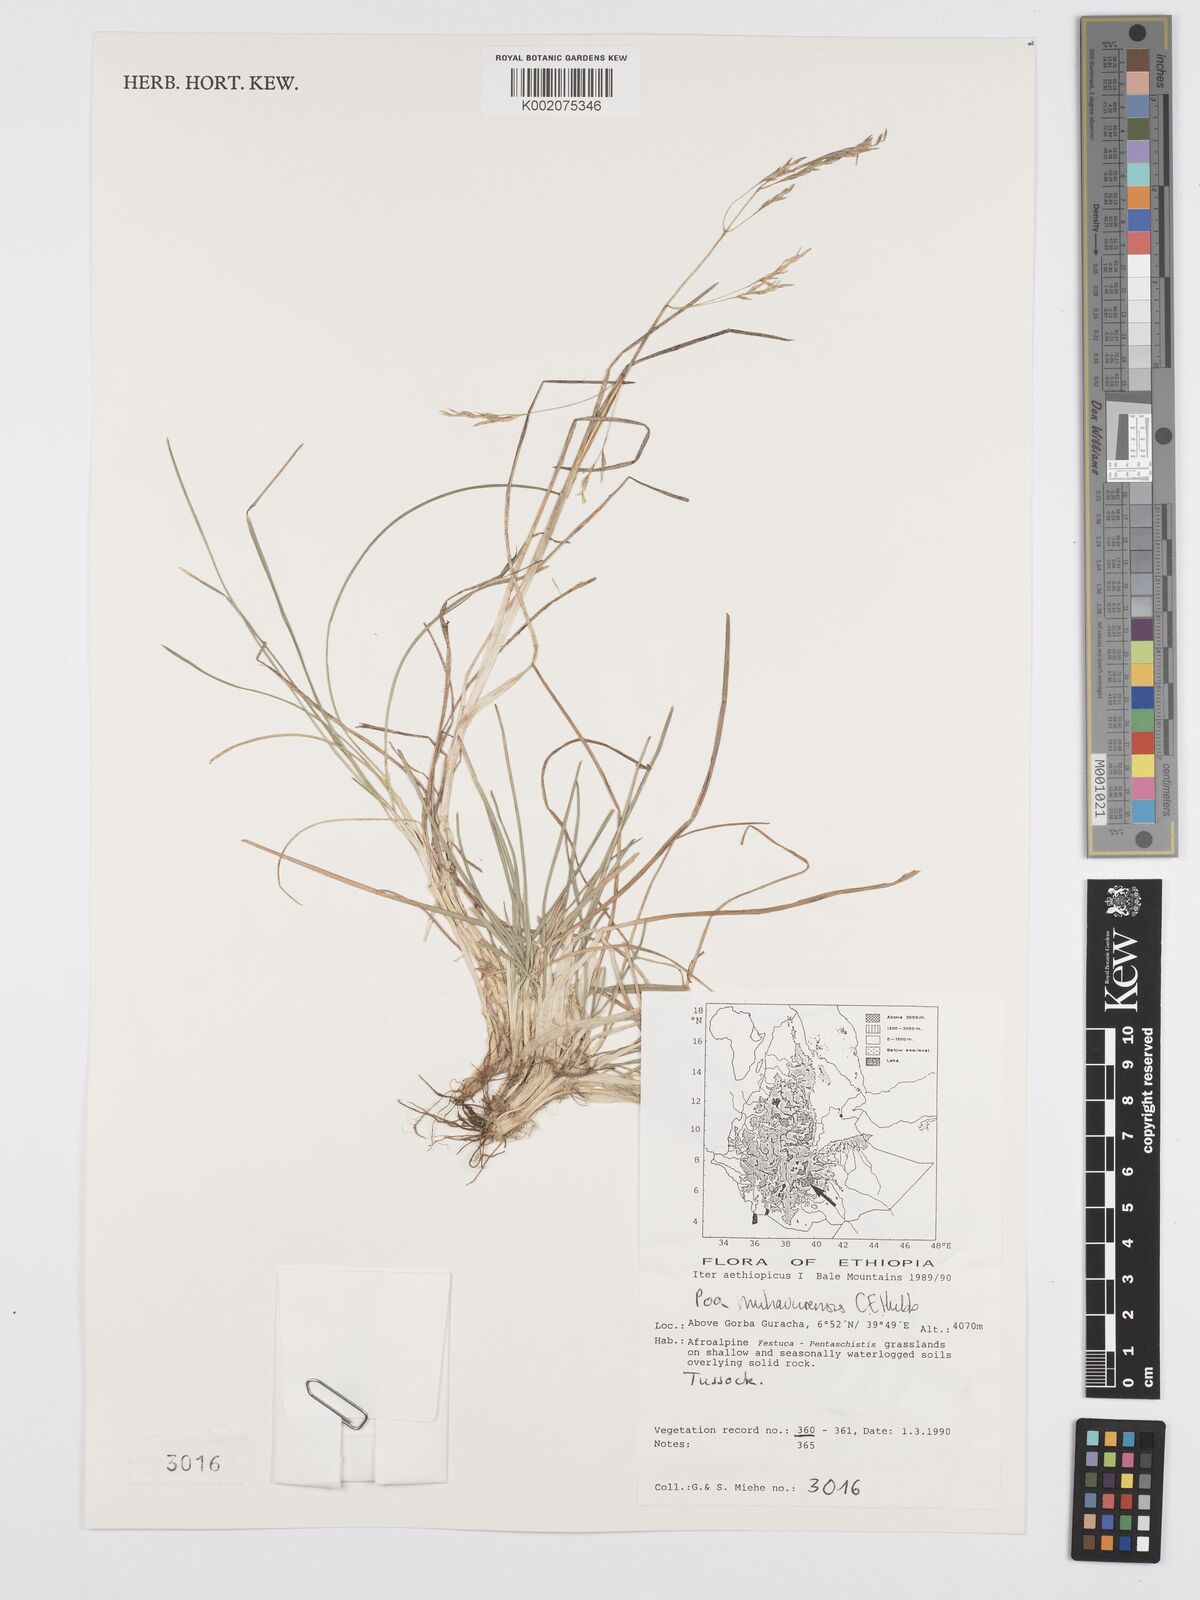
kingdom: Plantae
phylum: Tracheophyta
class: Liliopsida
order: Poales
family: Poaceae
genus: Poa
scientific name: Poa schimperiana
